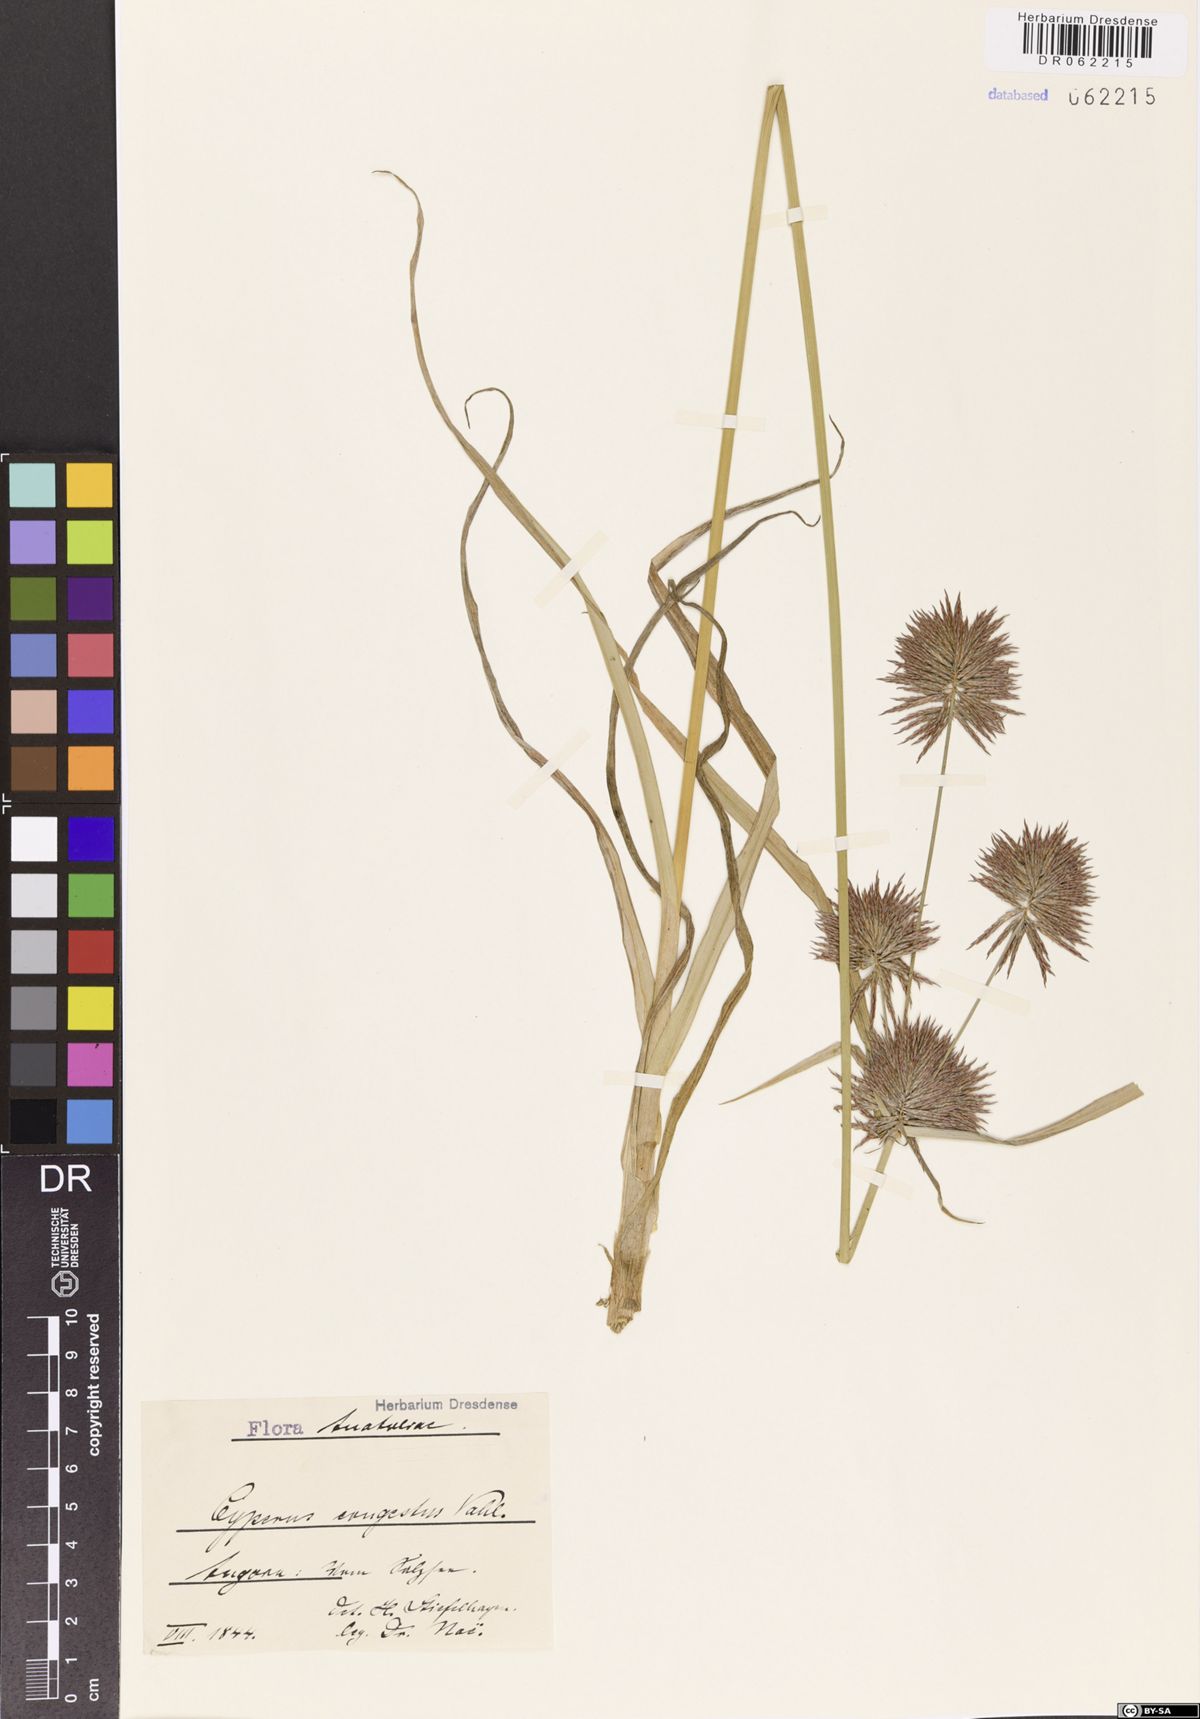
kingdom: Plantae
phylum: Tracheophyta
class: Liliopsida
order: Poales
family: Cyperaceae
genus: Cyperus
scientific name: Cyperus congestus
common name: Dense flat sedge
